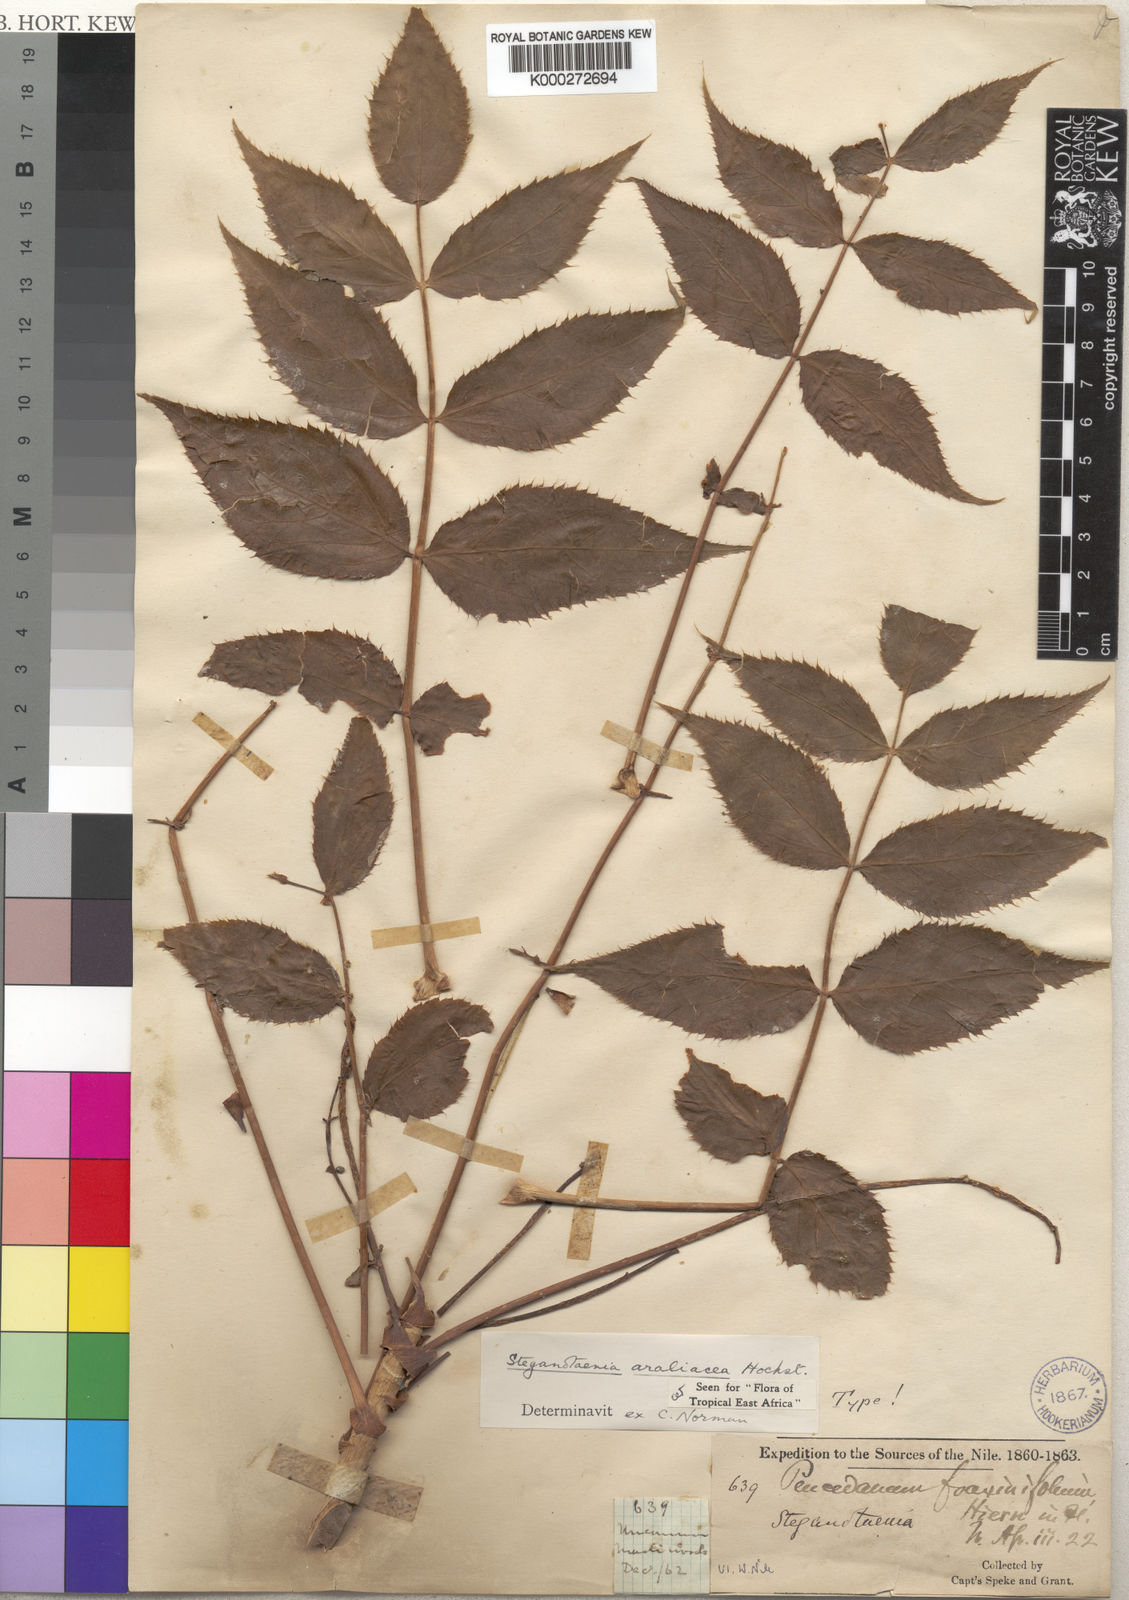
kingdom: Plantae
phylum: Tracheophyta
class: Magnoliopsida
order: Apiales
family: Apiaceae
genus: Steganotaenia
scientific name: Steganotaenia araliacea
